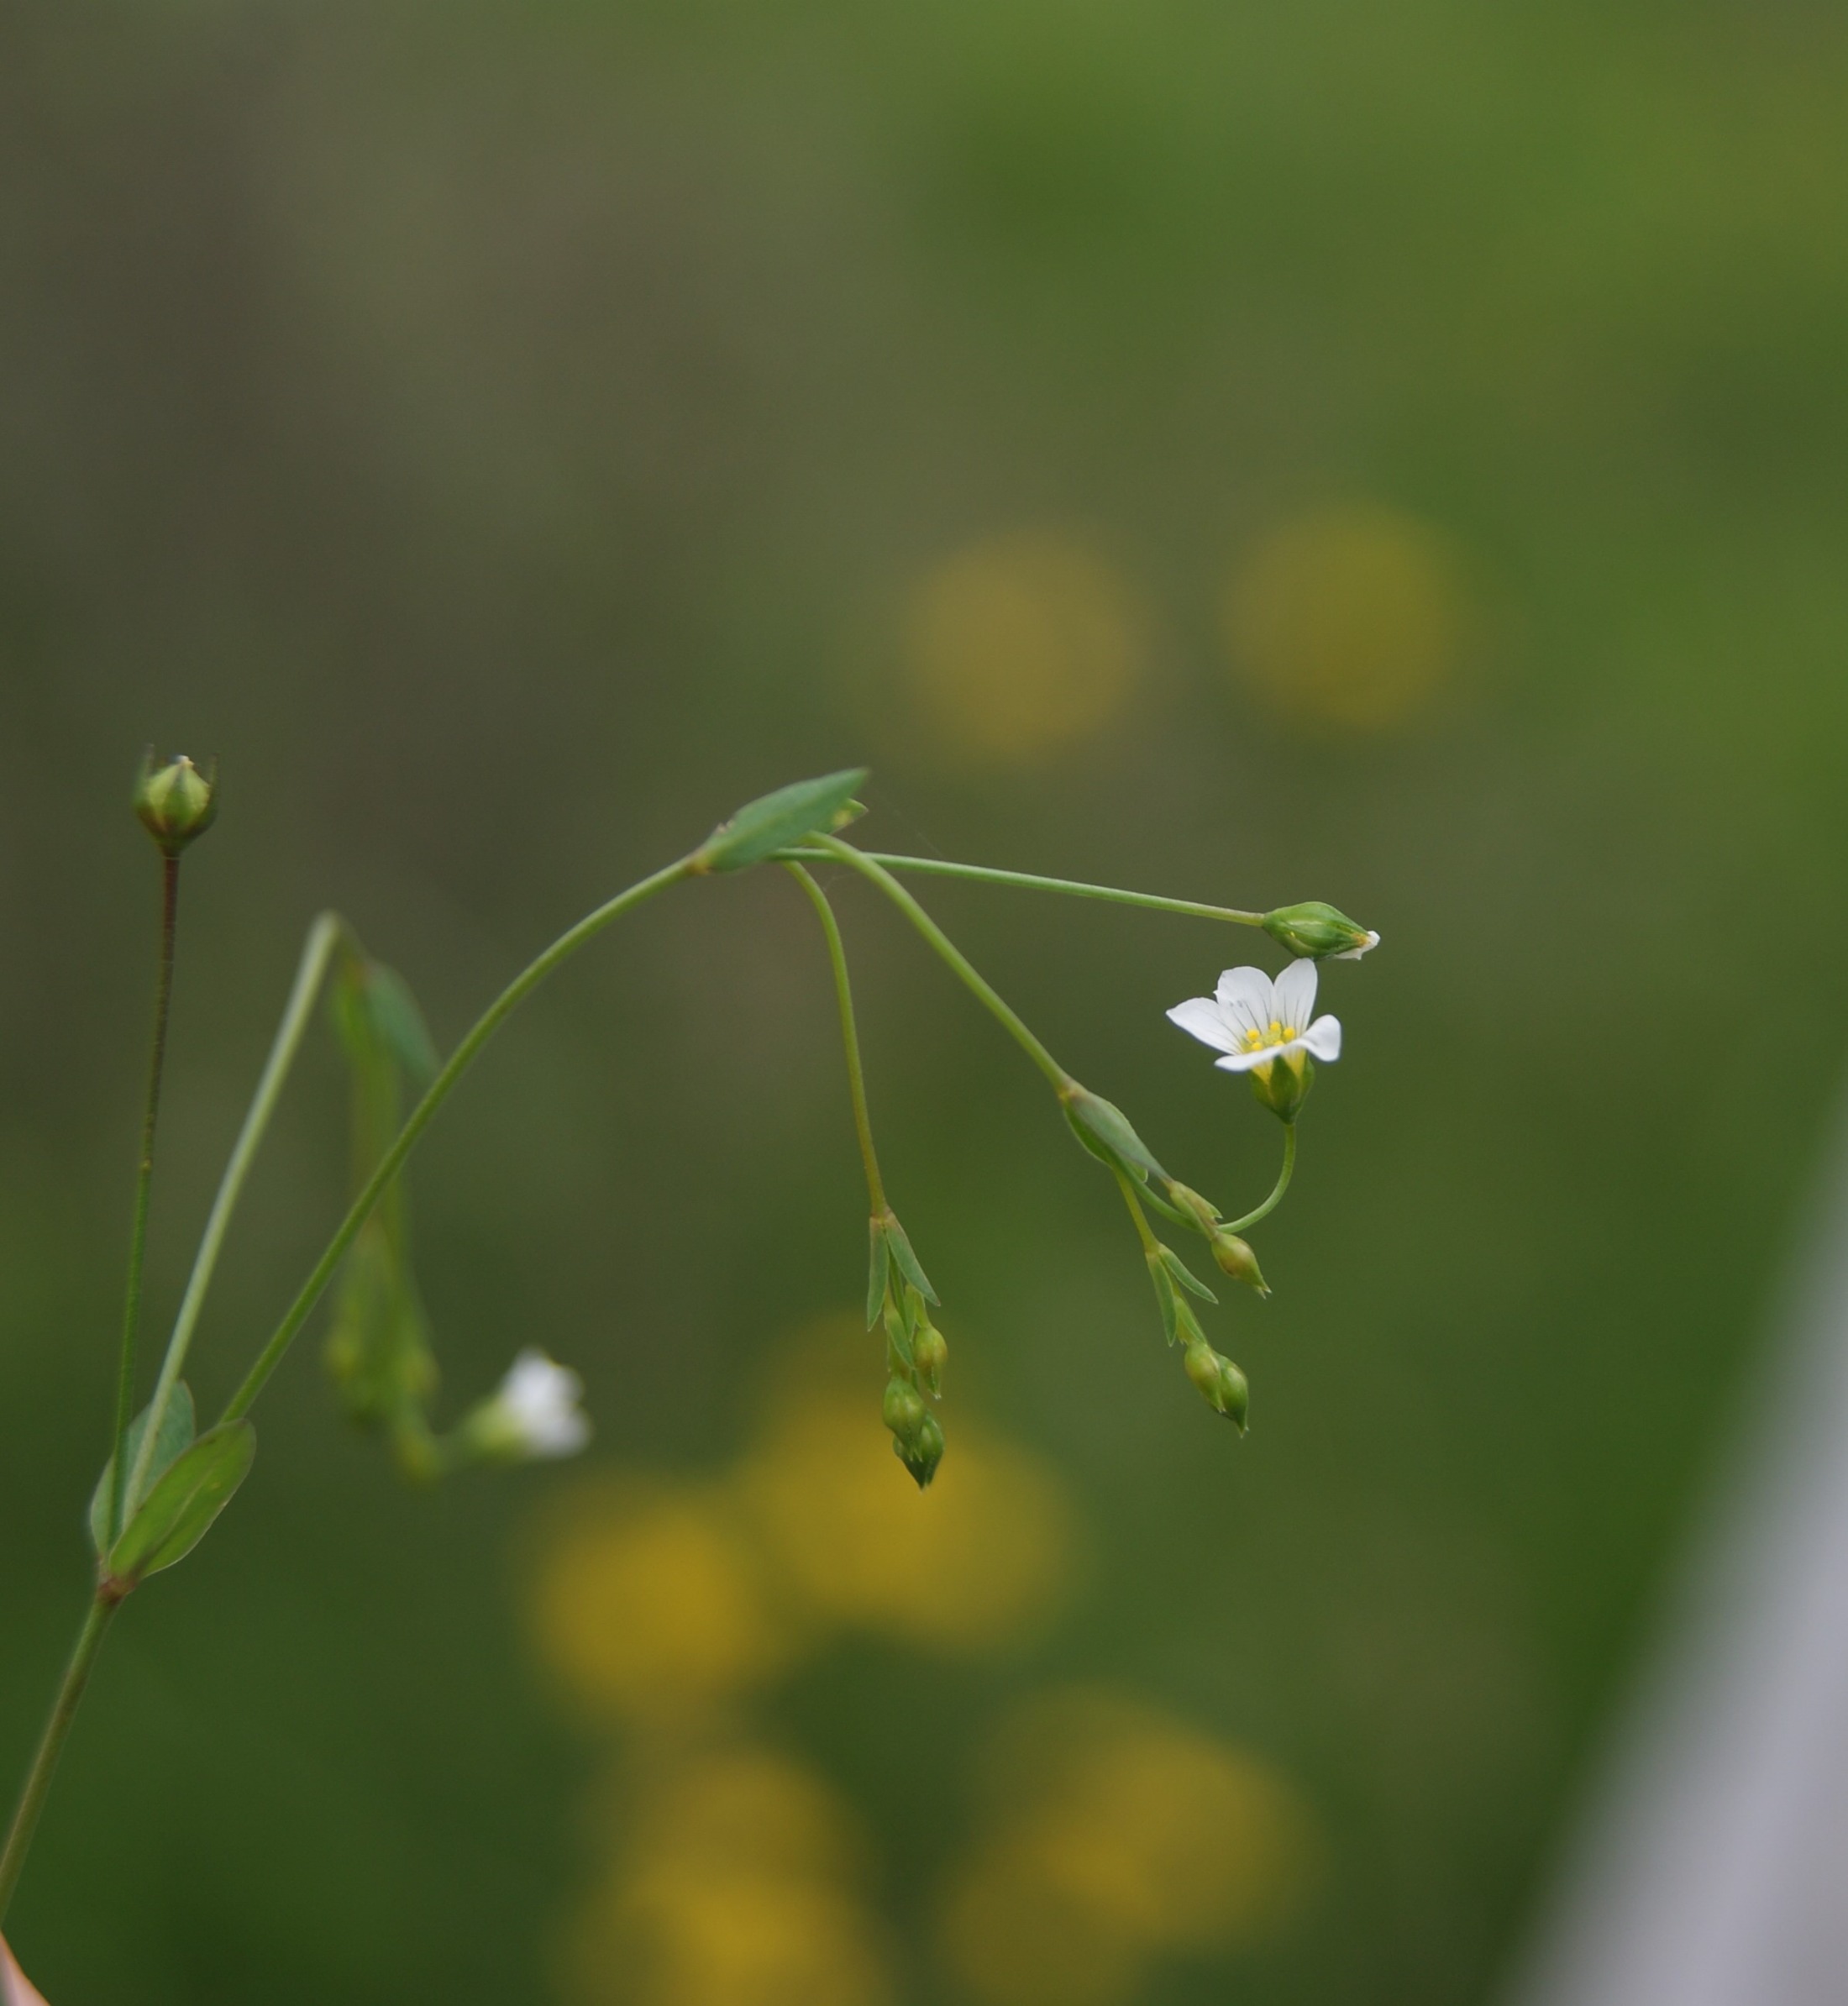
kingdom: Plantae
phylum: Tracheophyta
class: Magnoliopsida
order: Malpighiales
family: Linaceae
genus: Linum
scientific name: Linum catharticum
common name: Vild hør
